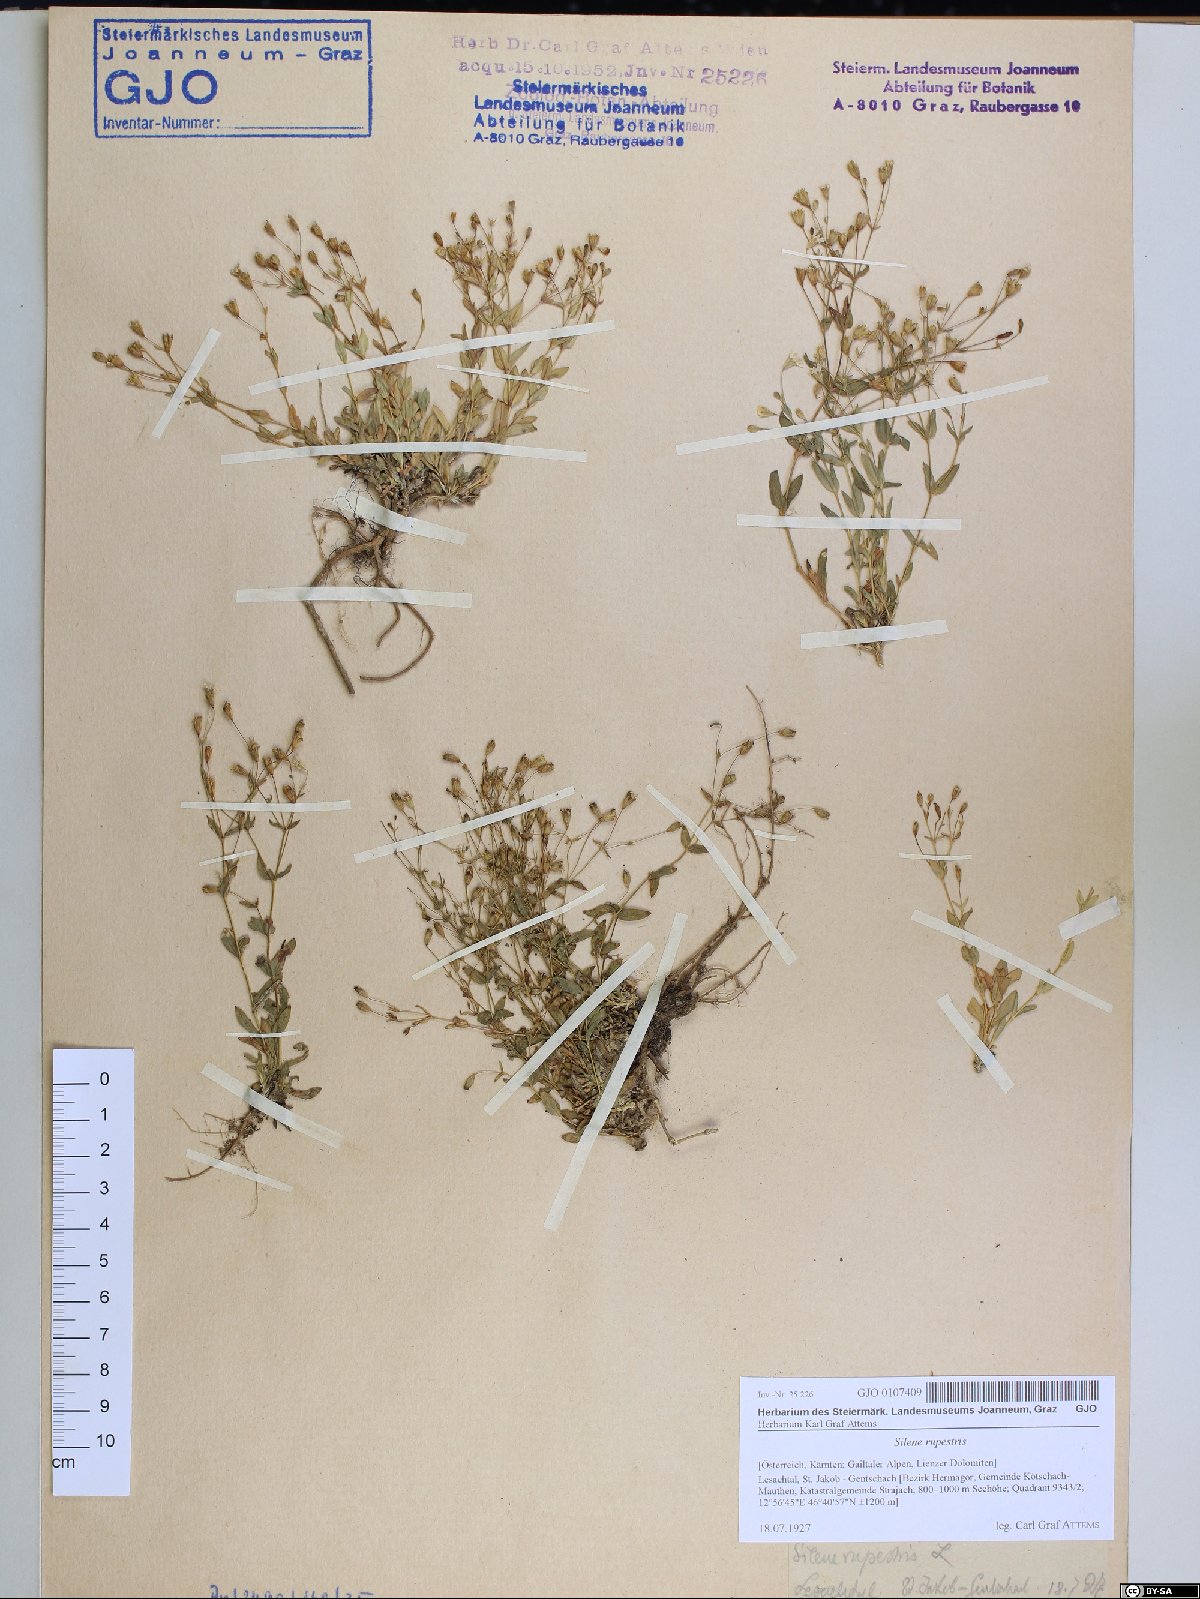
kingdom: Plantae
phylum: Tracheophyta
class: Magnoliopsida
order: Caryophyllales
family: Caryophyllaceae
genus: Atocion
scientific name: Atocion rupestre
